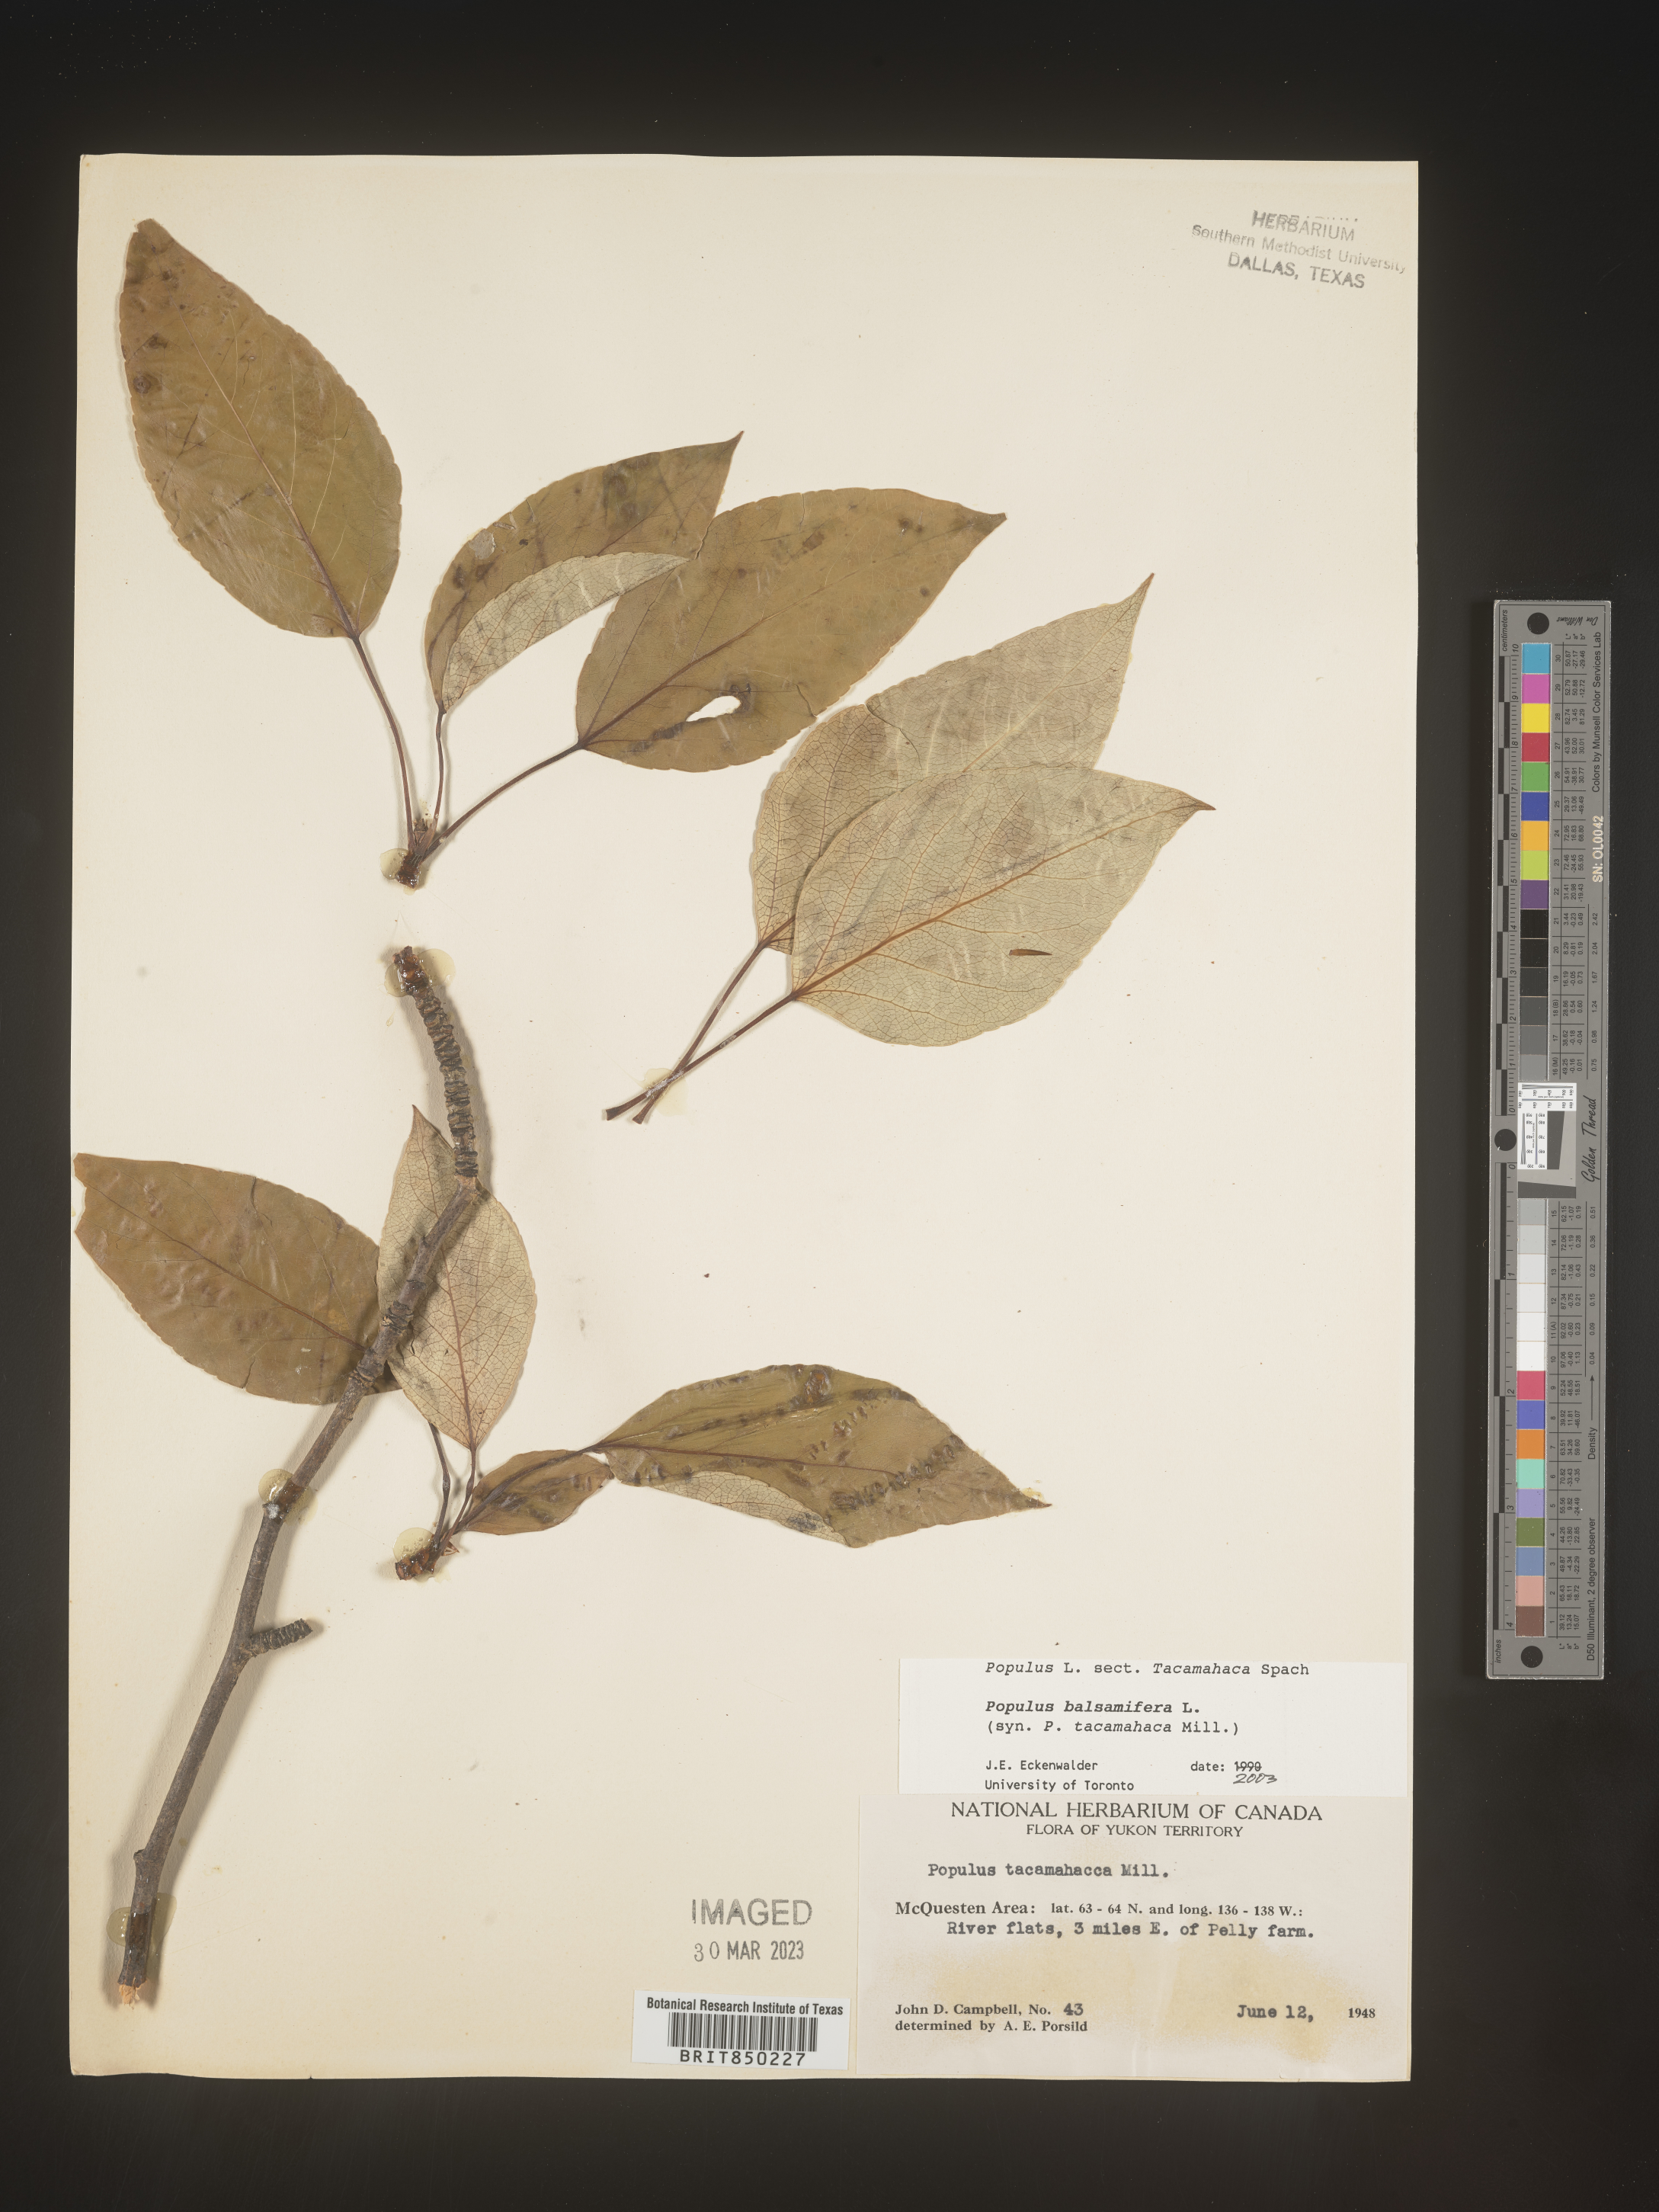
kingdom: Plantae
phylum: Tracheophyta
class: Magnoliopsida
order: Malpighiales
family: Salicaceae
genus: Populus
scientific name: Populus balsamifera
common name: Balsam poplar
